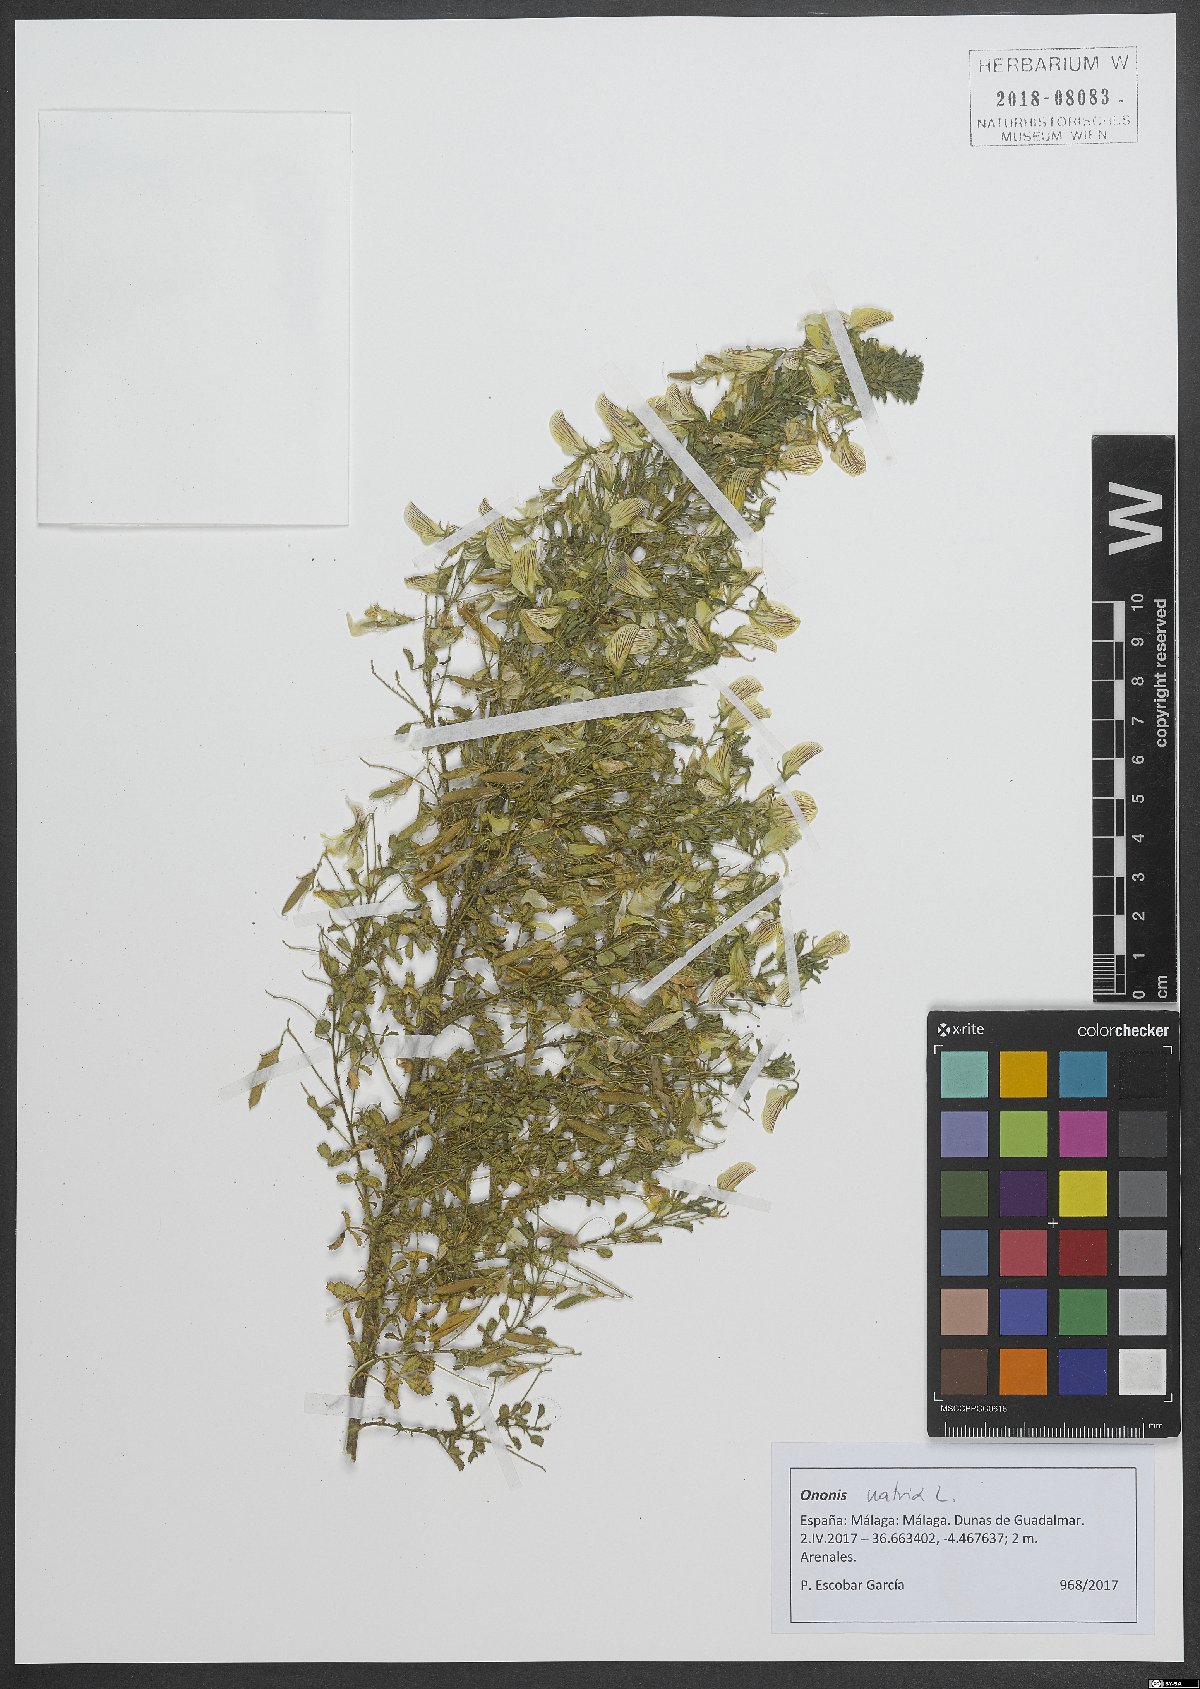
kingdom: Plantae
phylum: Tracheophyta
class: Magnoliopsida
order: Fabales
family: Fabaceae
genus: Ononis
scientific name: Ononis natrix
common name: Yellow restharrow
